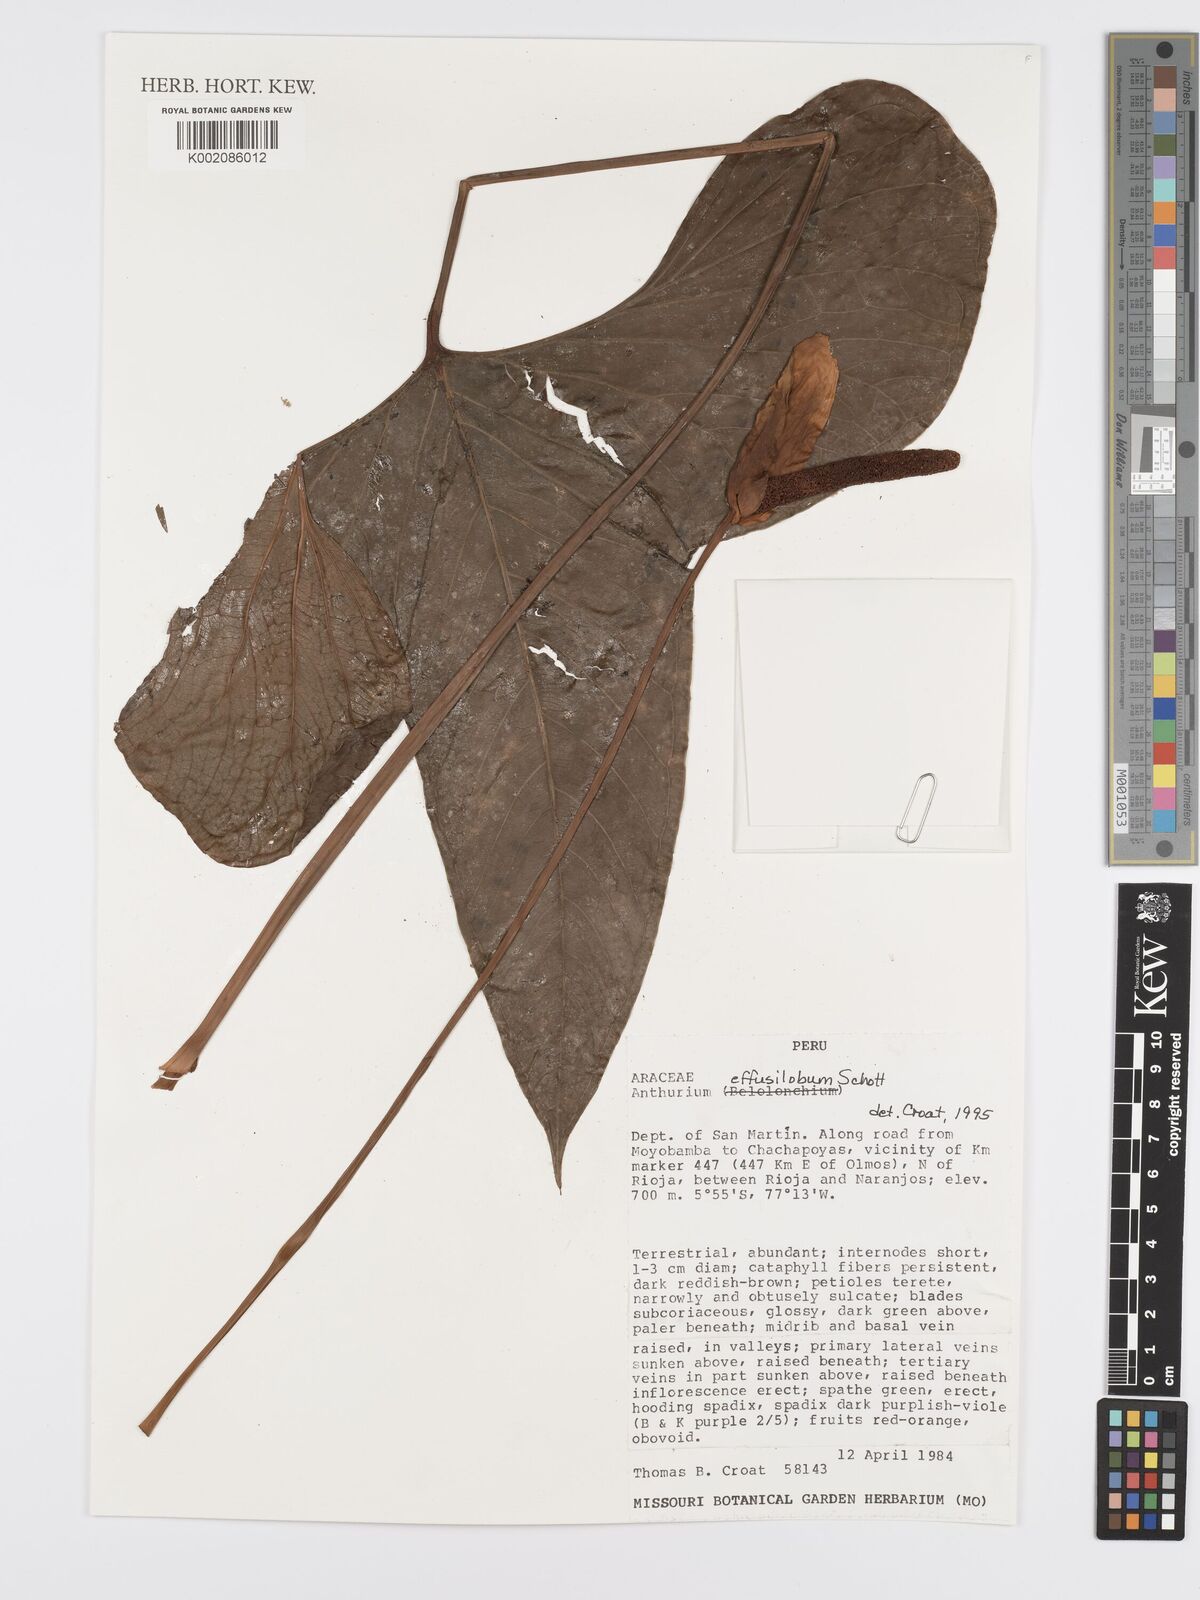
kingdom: Plantae
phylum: Tracheophyta
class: Liliopsida
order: Alismatales
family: Araceae
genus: Anthurium
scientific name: Anthurium effusilobum
